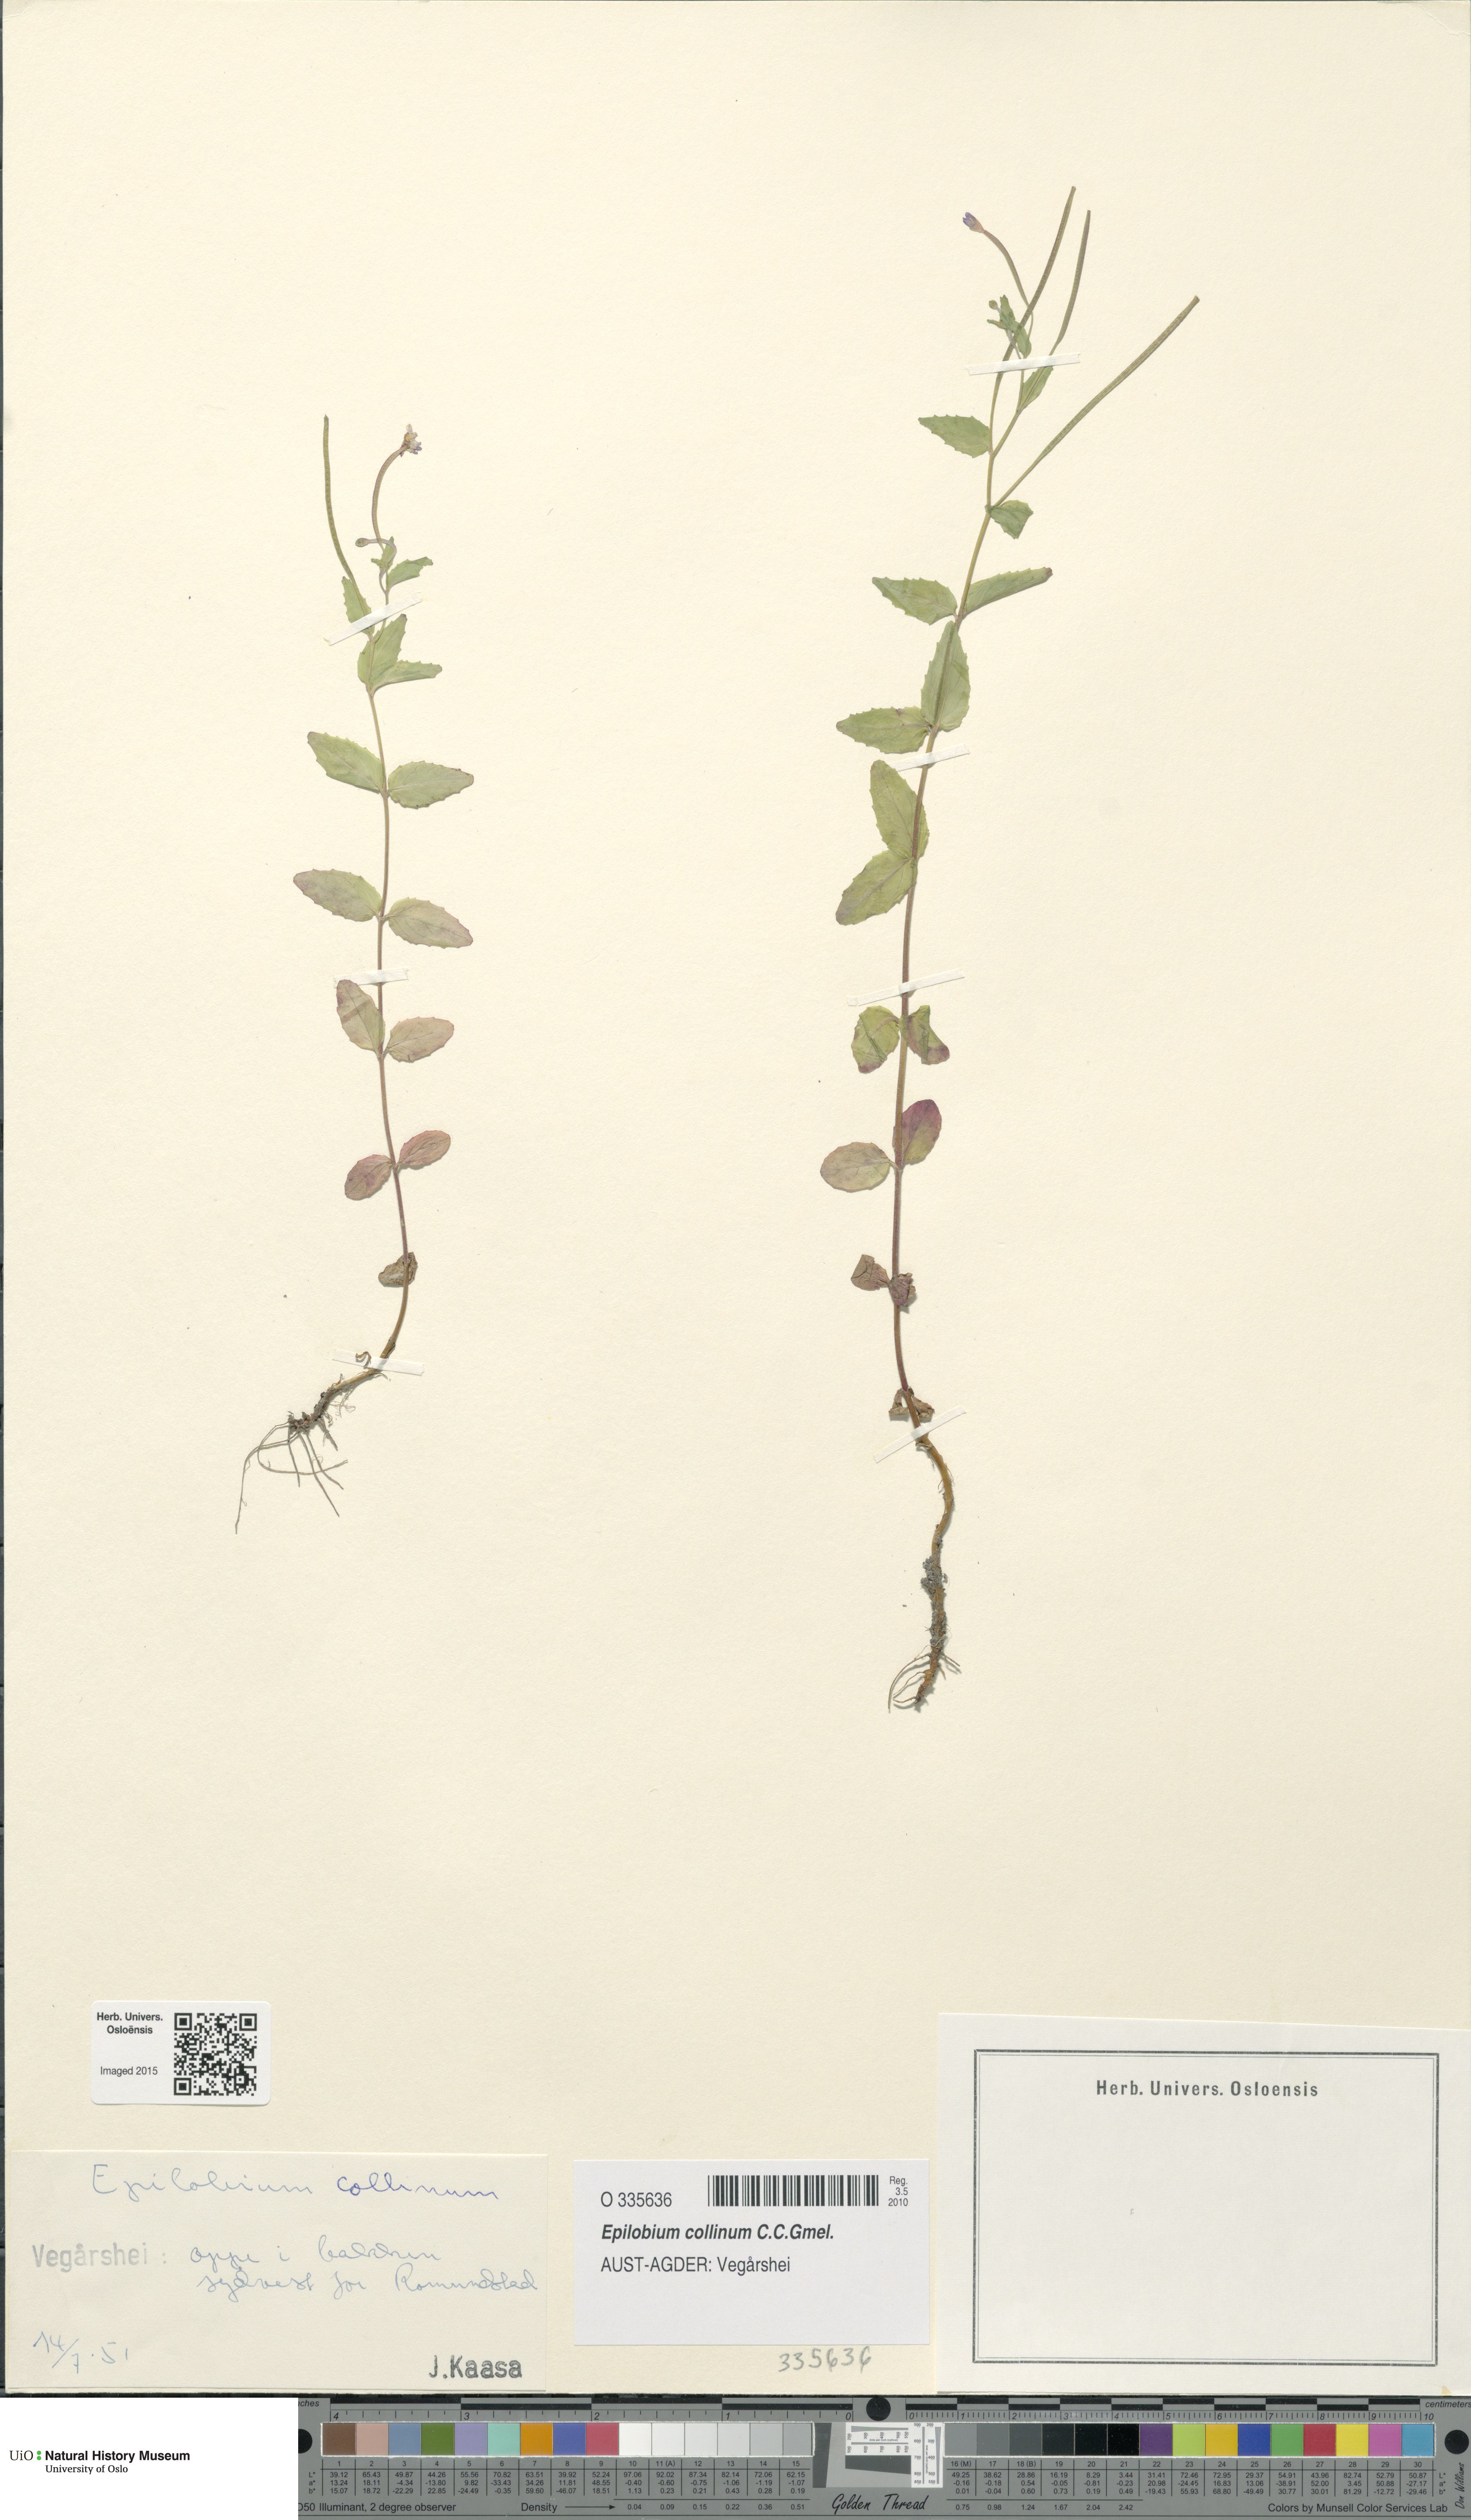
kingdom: Plantae
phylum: Tracheophyta
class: Magnoliopsida
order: Myrtales
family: Onagraceae
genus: Epilobium
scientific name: Epilobium collinum
